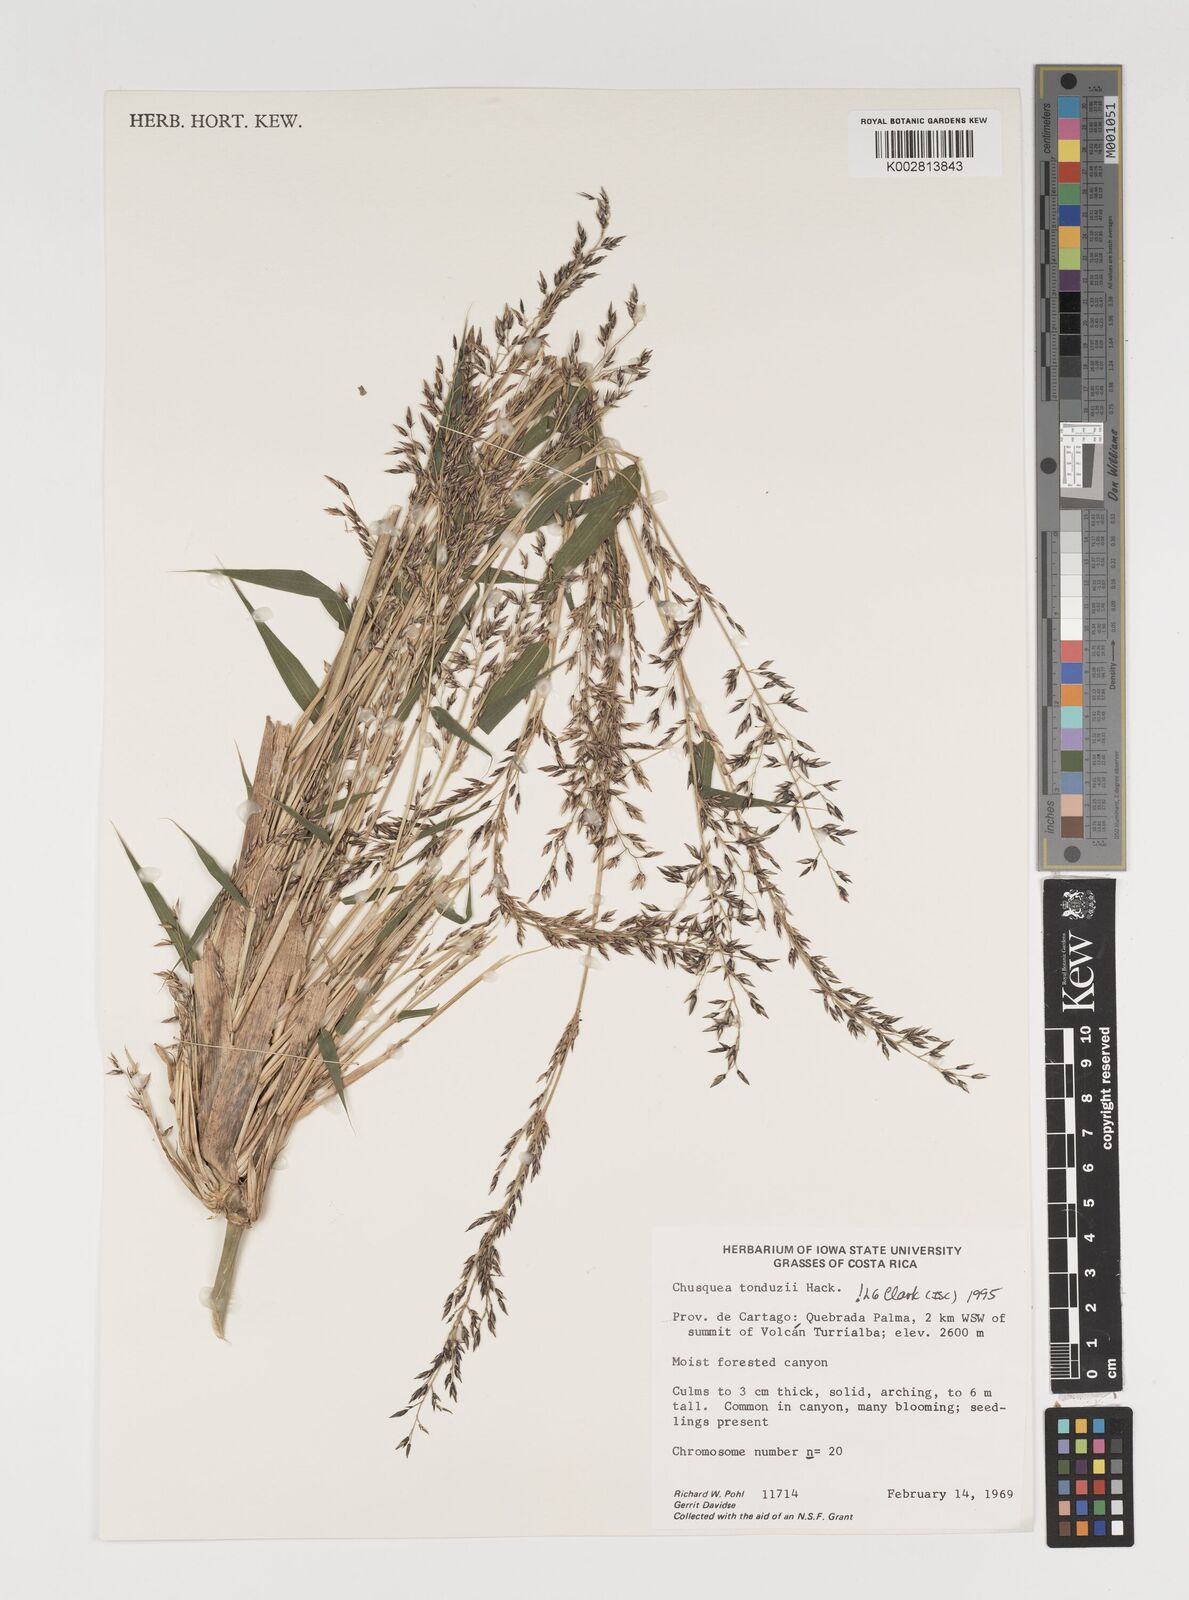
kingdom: Plantae
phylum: Tracheophyta
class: Liliopsida
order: Poales
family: Poaceae
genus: Chusquea
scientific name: Chusquea tonduzii
